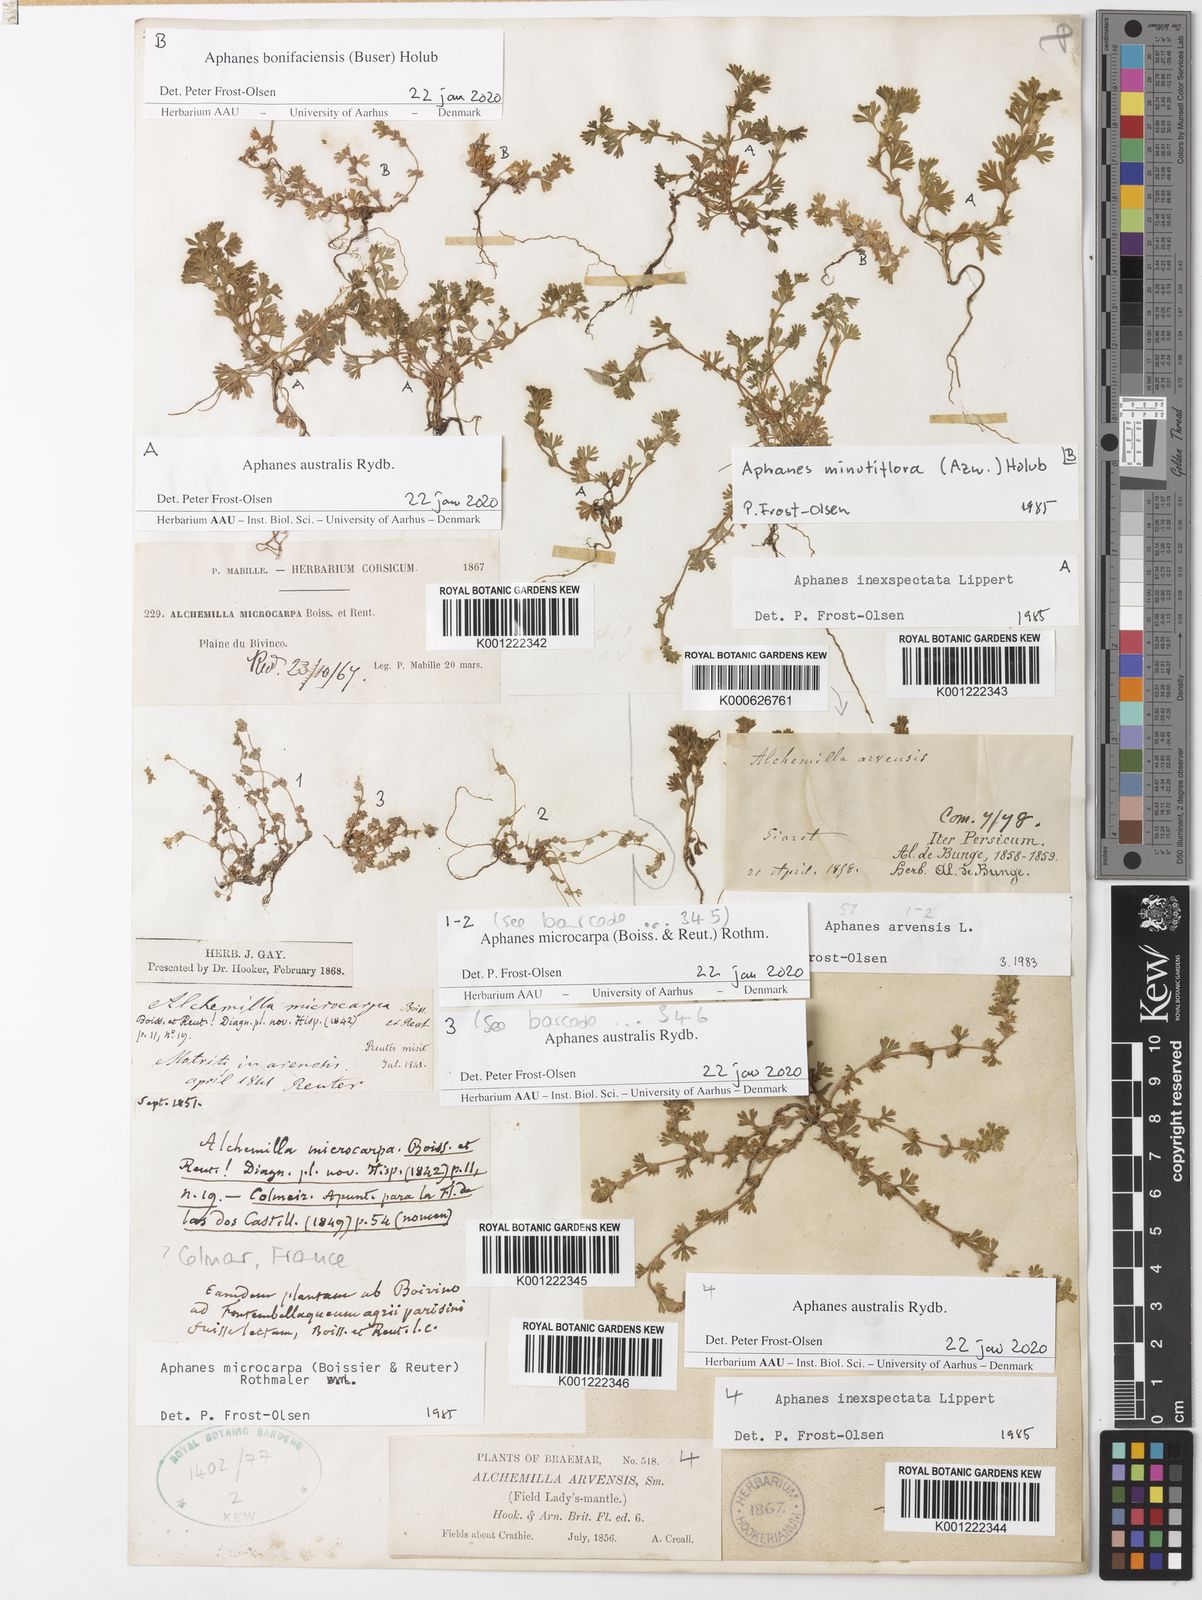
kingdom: Plantae
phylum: Tracheophyta
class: Magnoliopsida
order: Rosales
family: Rosaceae
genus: Aphanes
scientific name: Aphanes australis
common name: Slender parsley-piert
